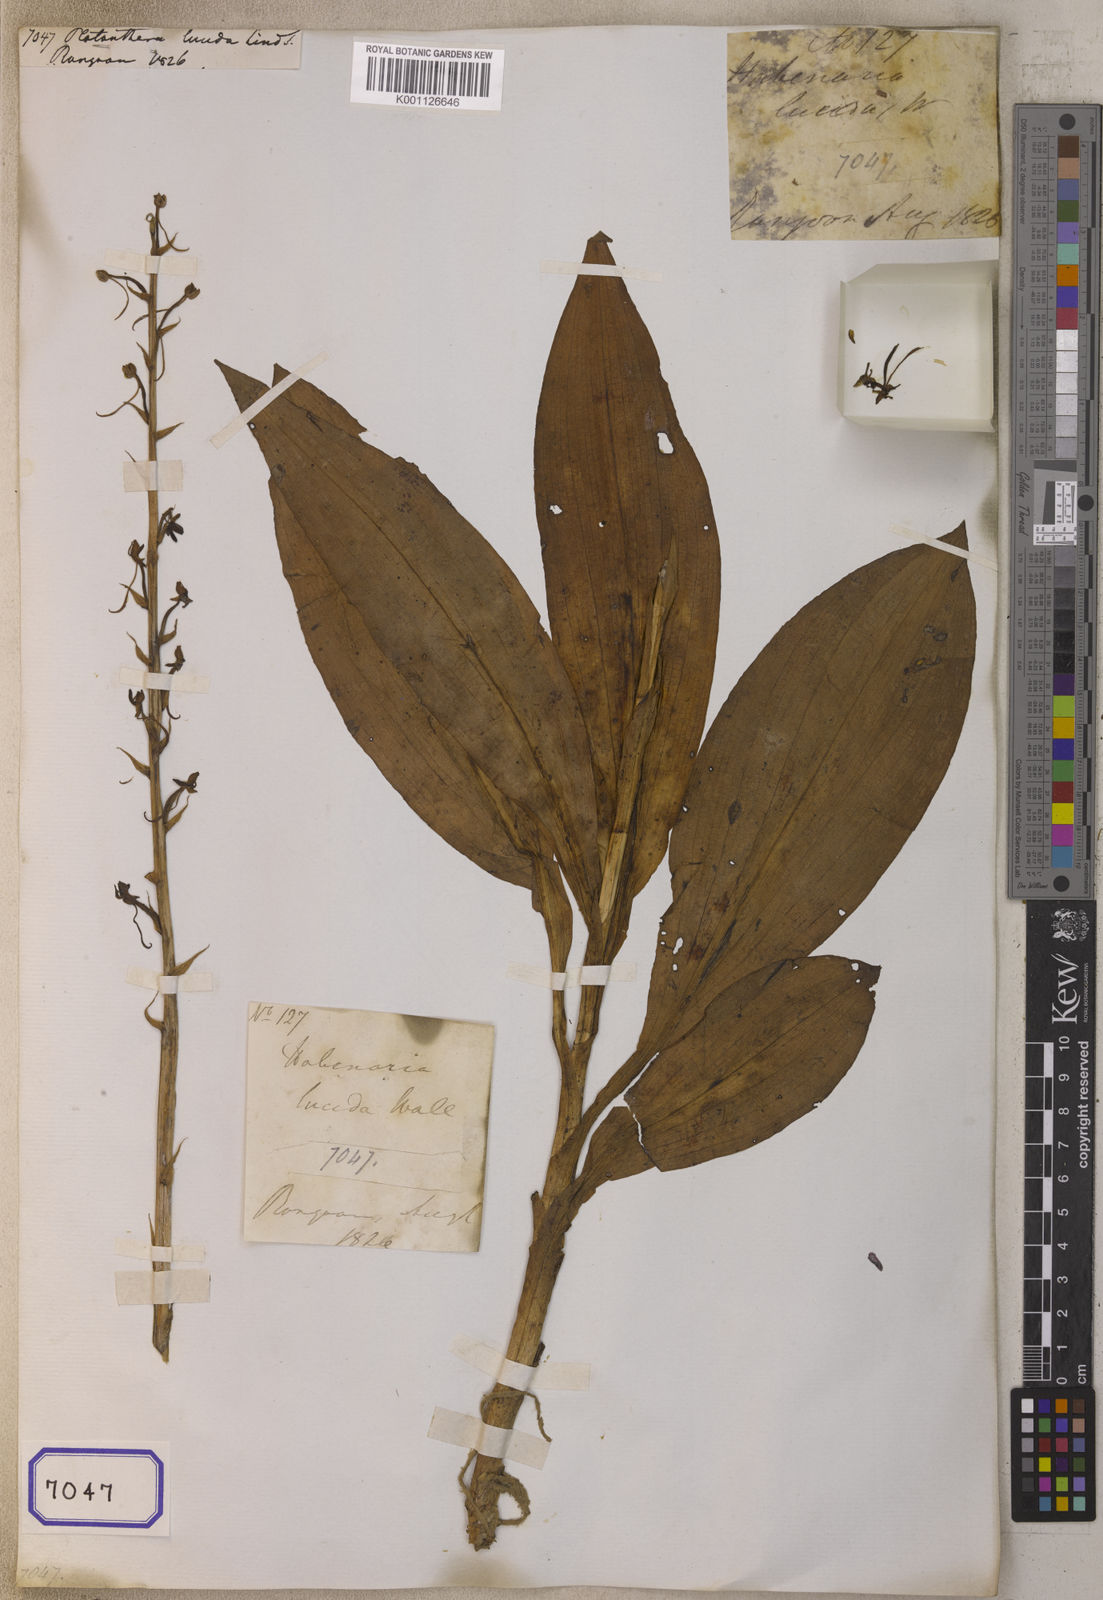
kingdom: Plantae
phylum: Tracheophyta
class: Liliopsida
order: Asparagales
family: Orchidaceae
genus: Platanthera
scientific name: Platanthera
